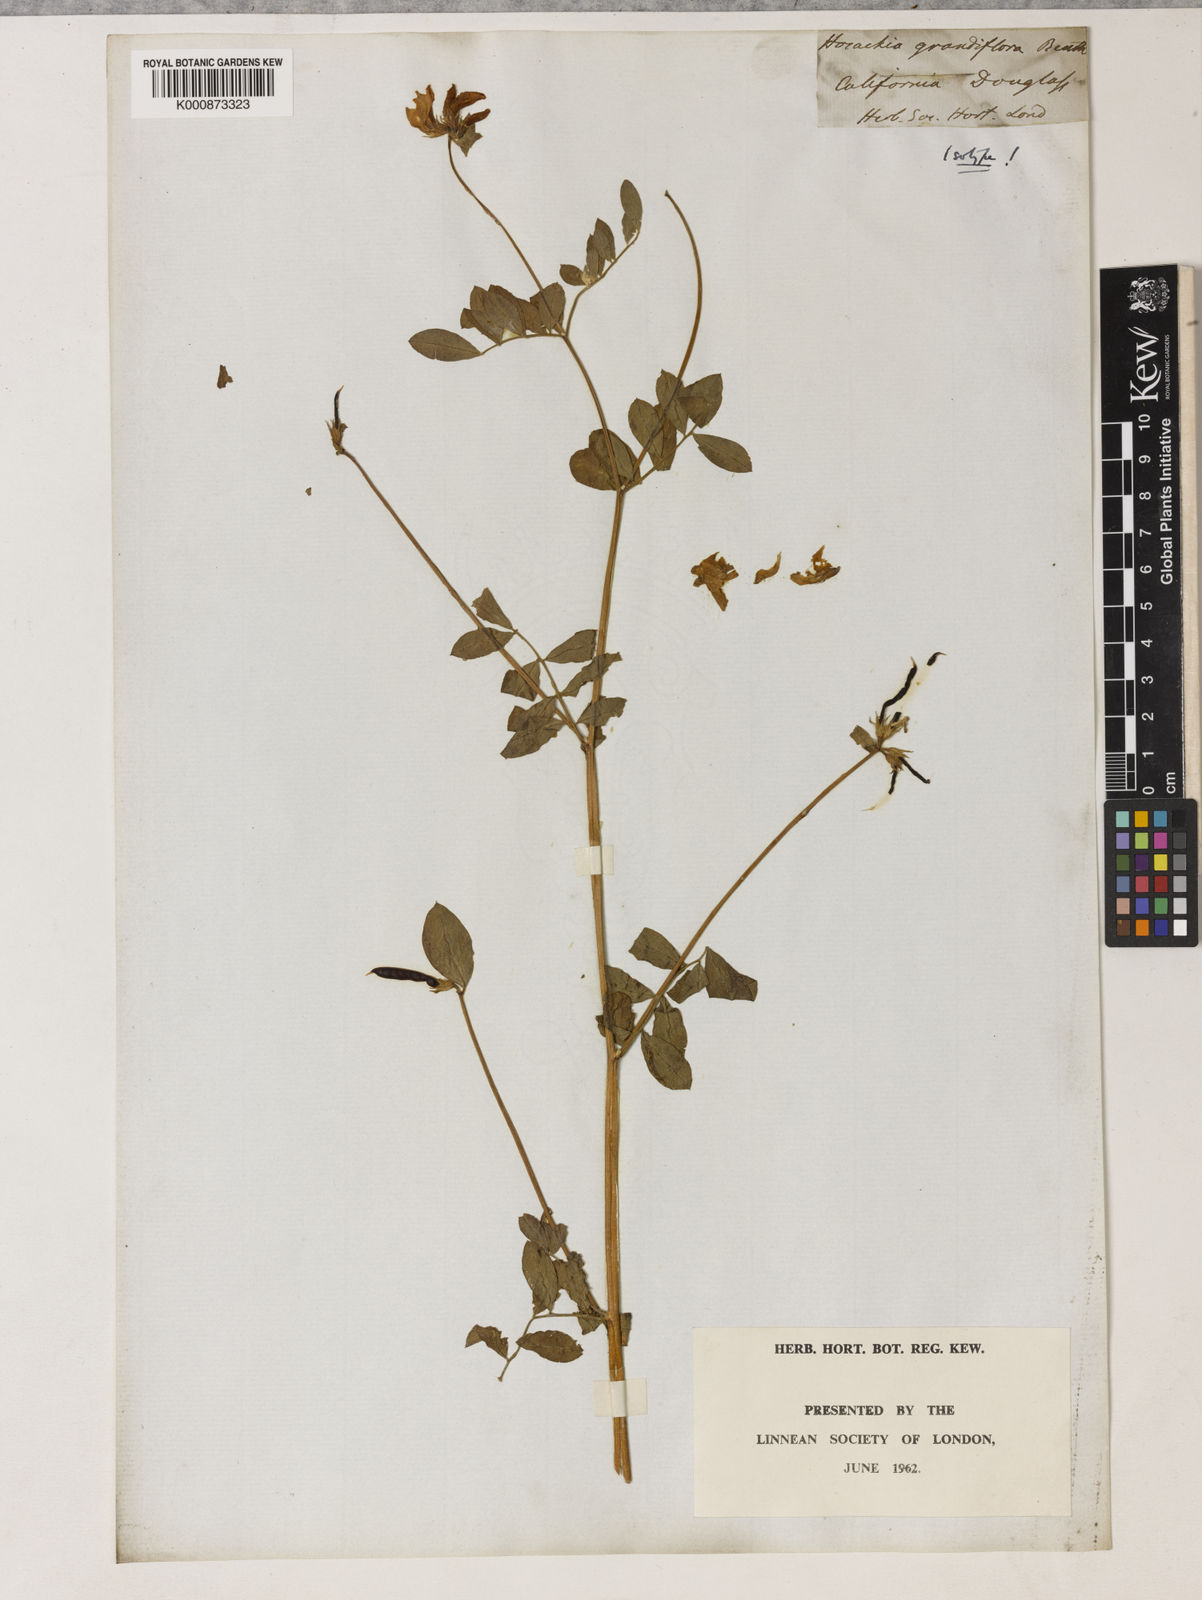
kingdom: Plantae
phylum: Tracheophyta
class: Magnoliopsida
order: Fabales
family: Fabaceae
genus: Acmispon
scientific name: Acmispon grandiflorus
